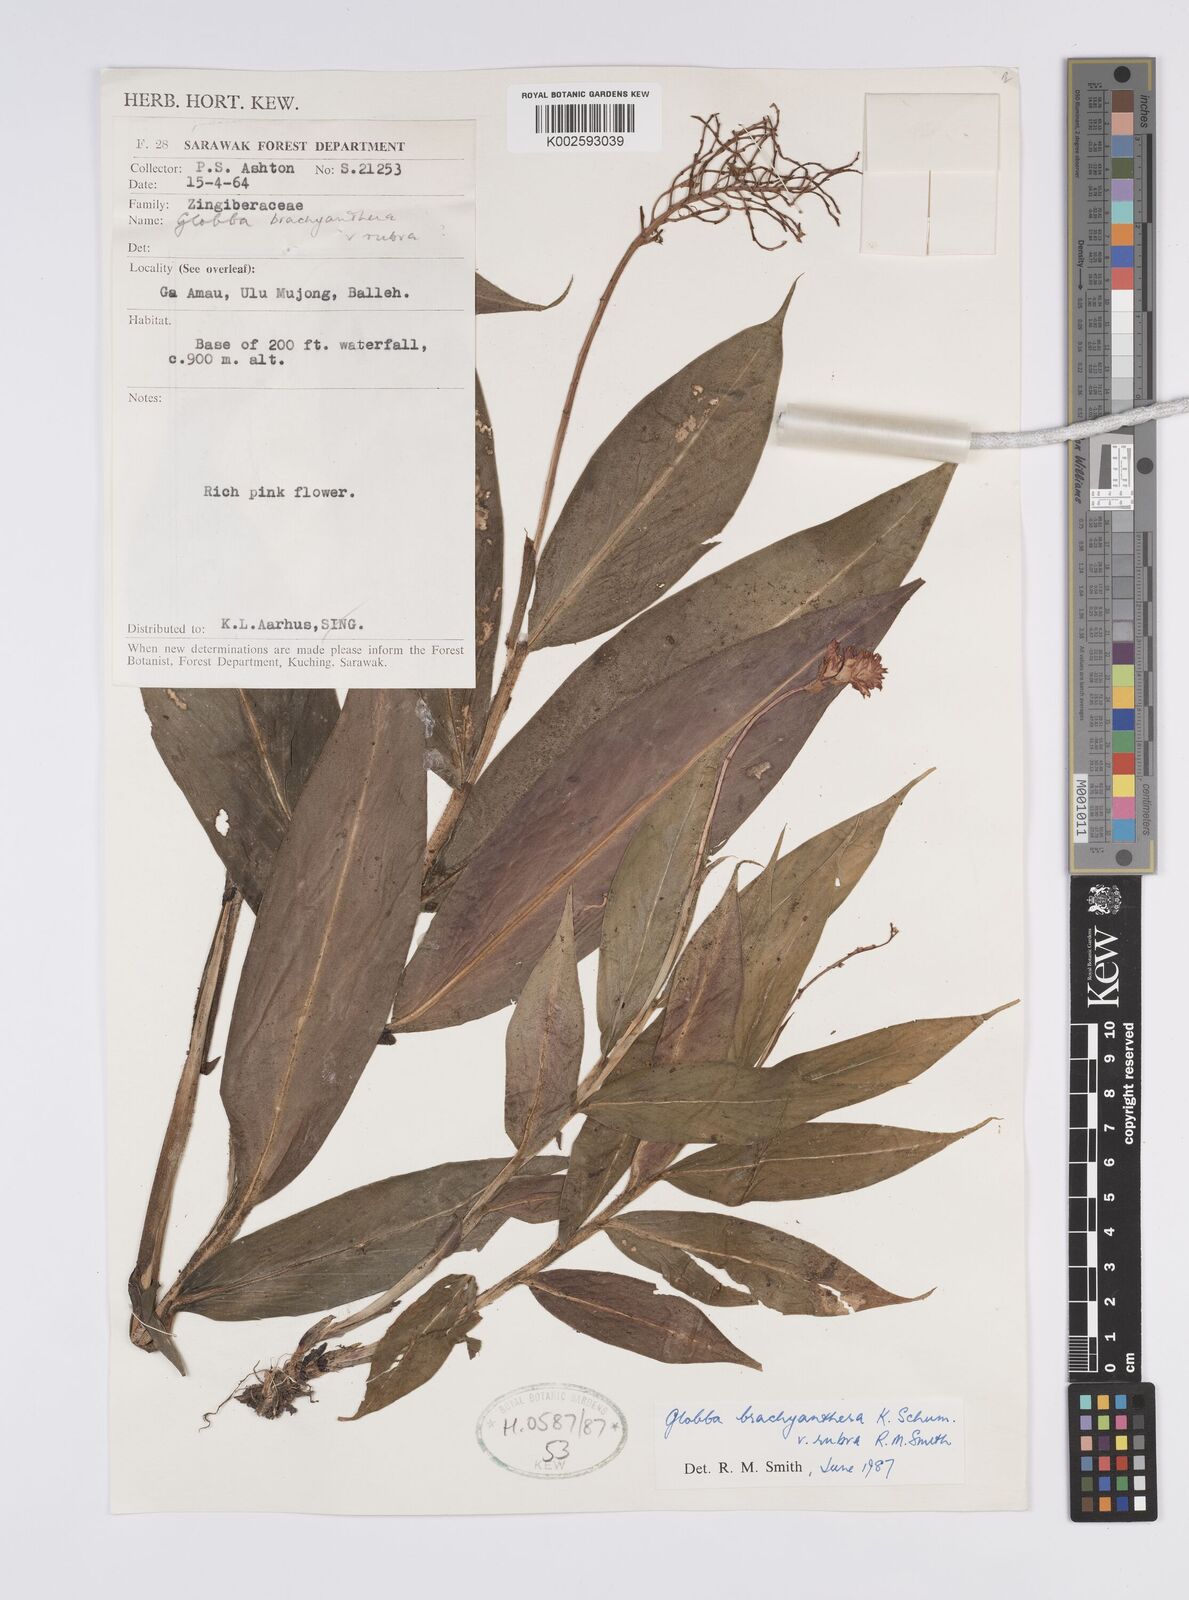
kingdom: Plantae
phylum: Tracheophyta
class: Liliopsida
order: Zingiberales
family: Zingiberaceae
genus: Globba
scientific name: Globba brachyanthera
